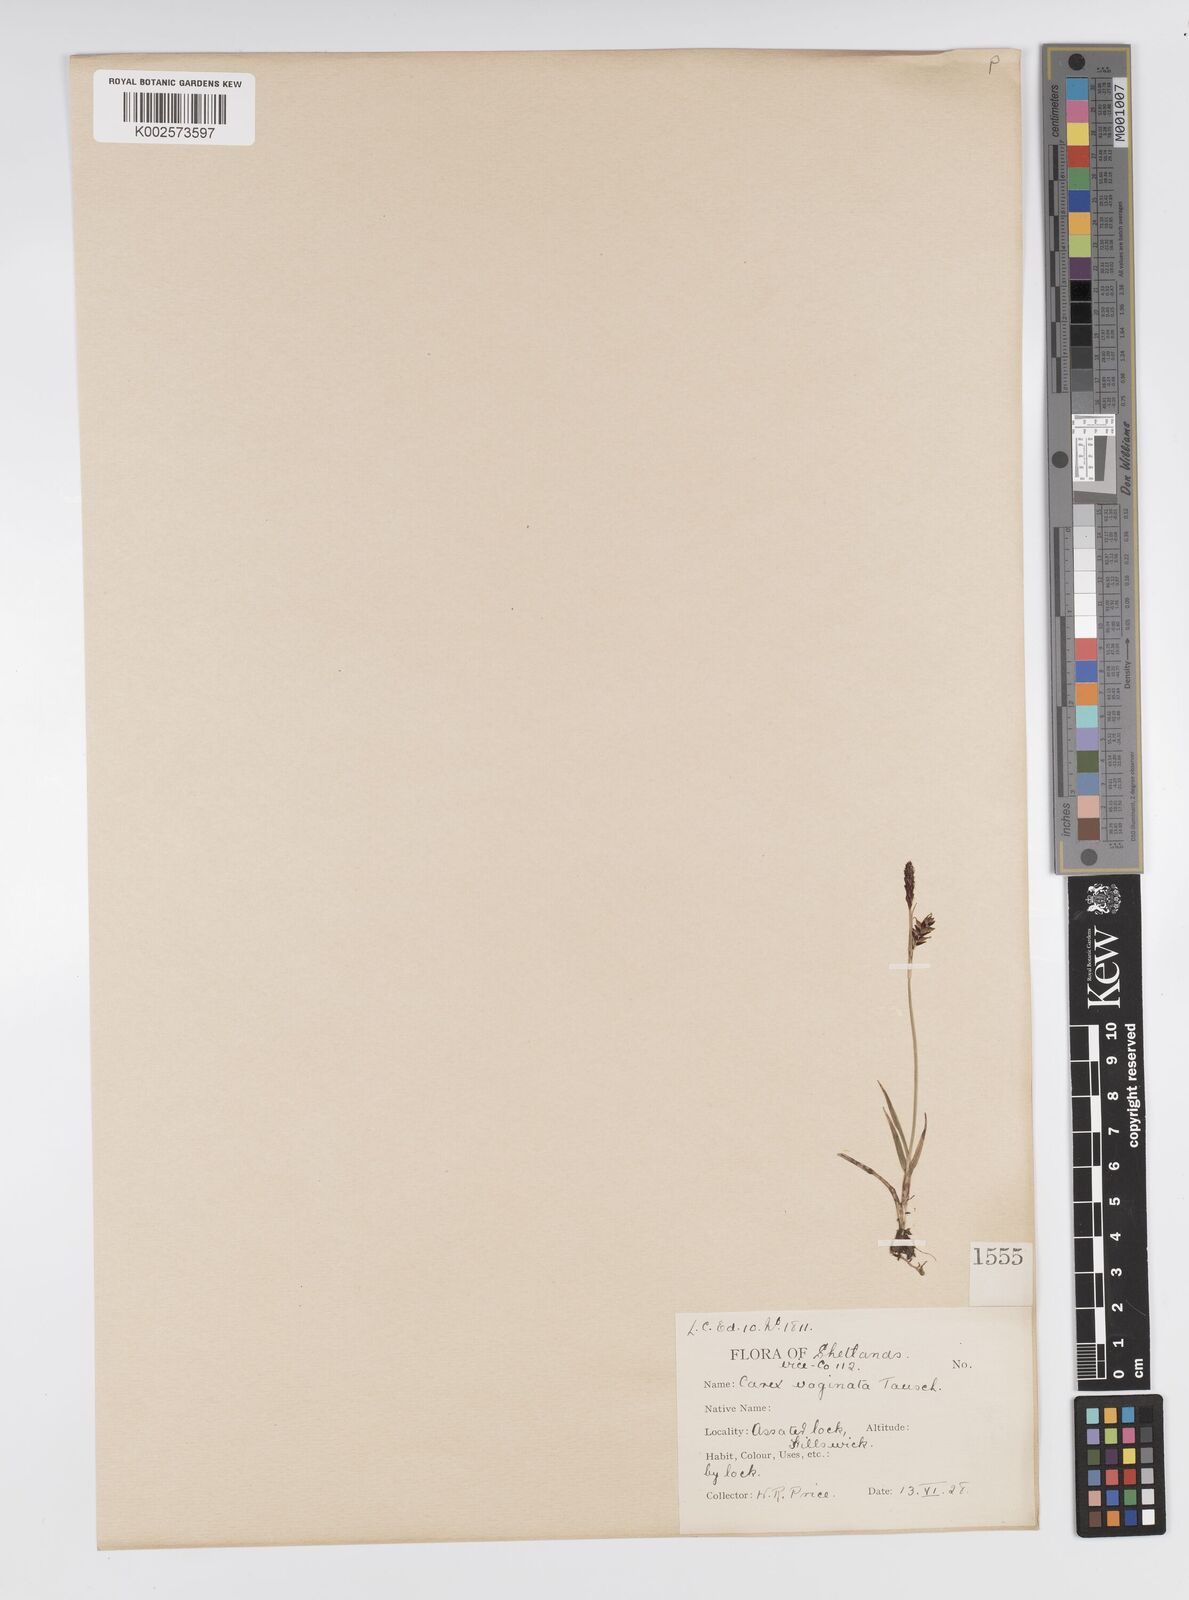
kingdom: Plantae
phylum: Tracheophyta
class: Liliopsida
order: Poales
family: Cyperaceae
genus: Carex
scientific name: Carex panicea
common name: Carnation sedge
